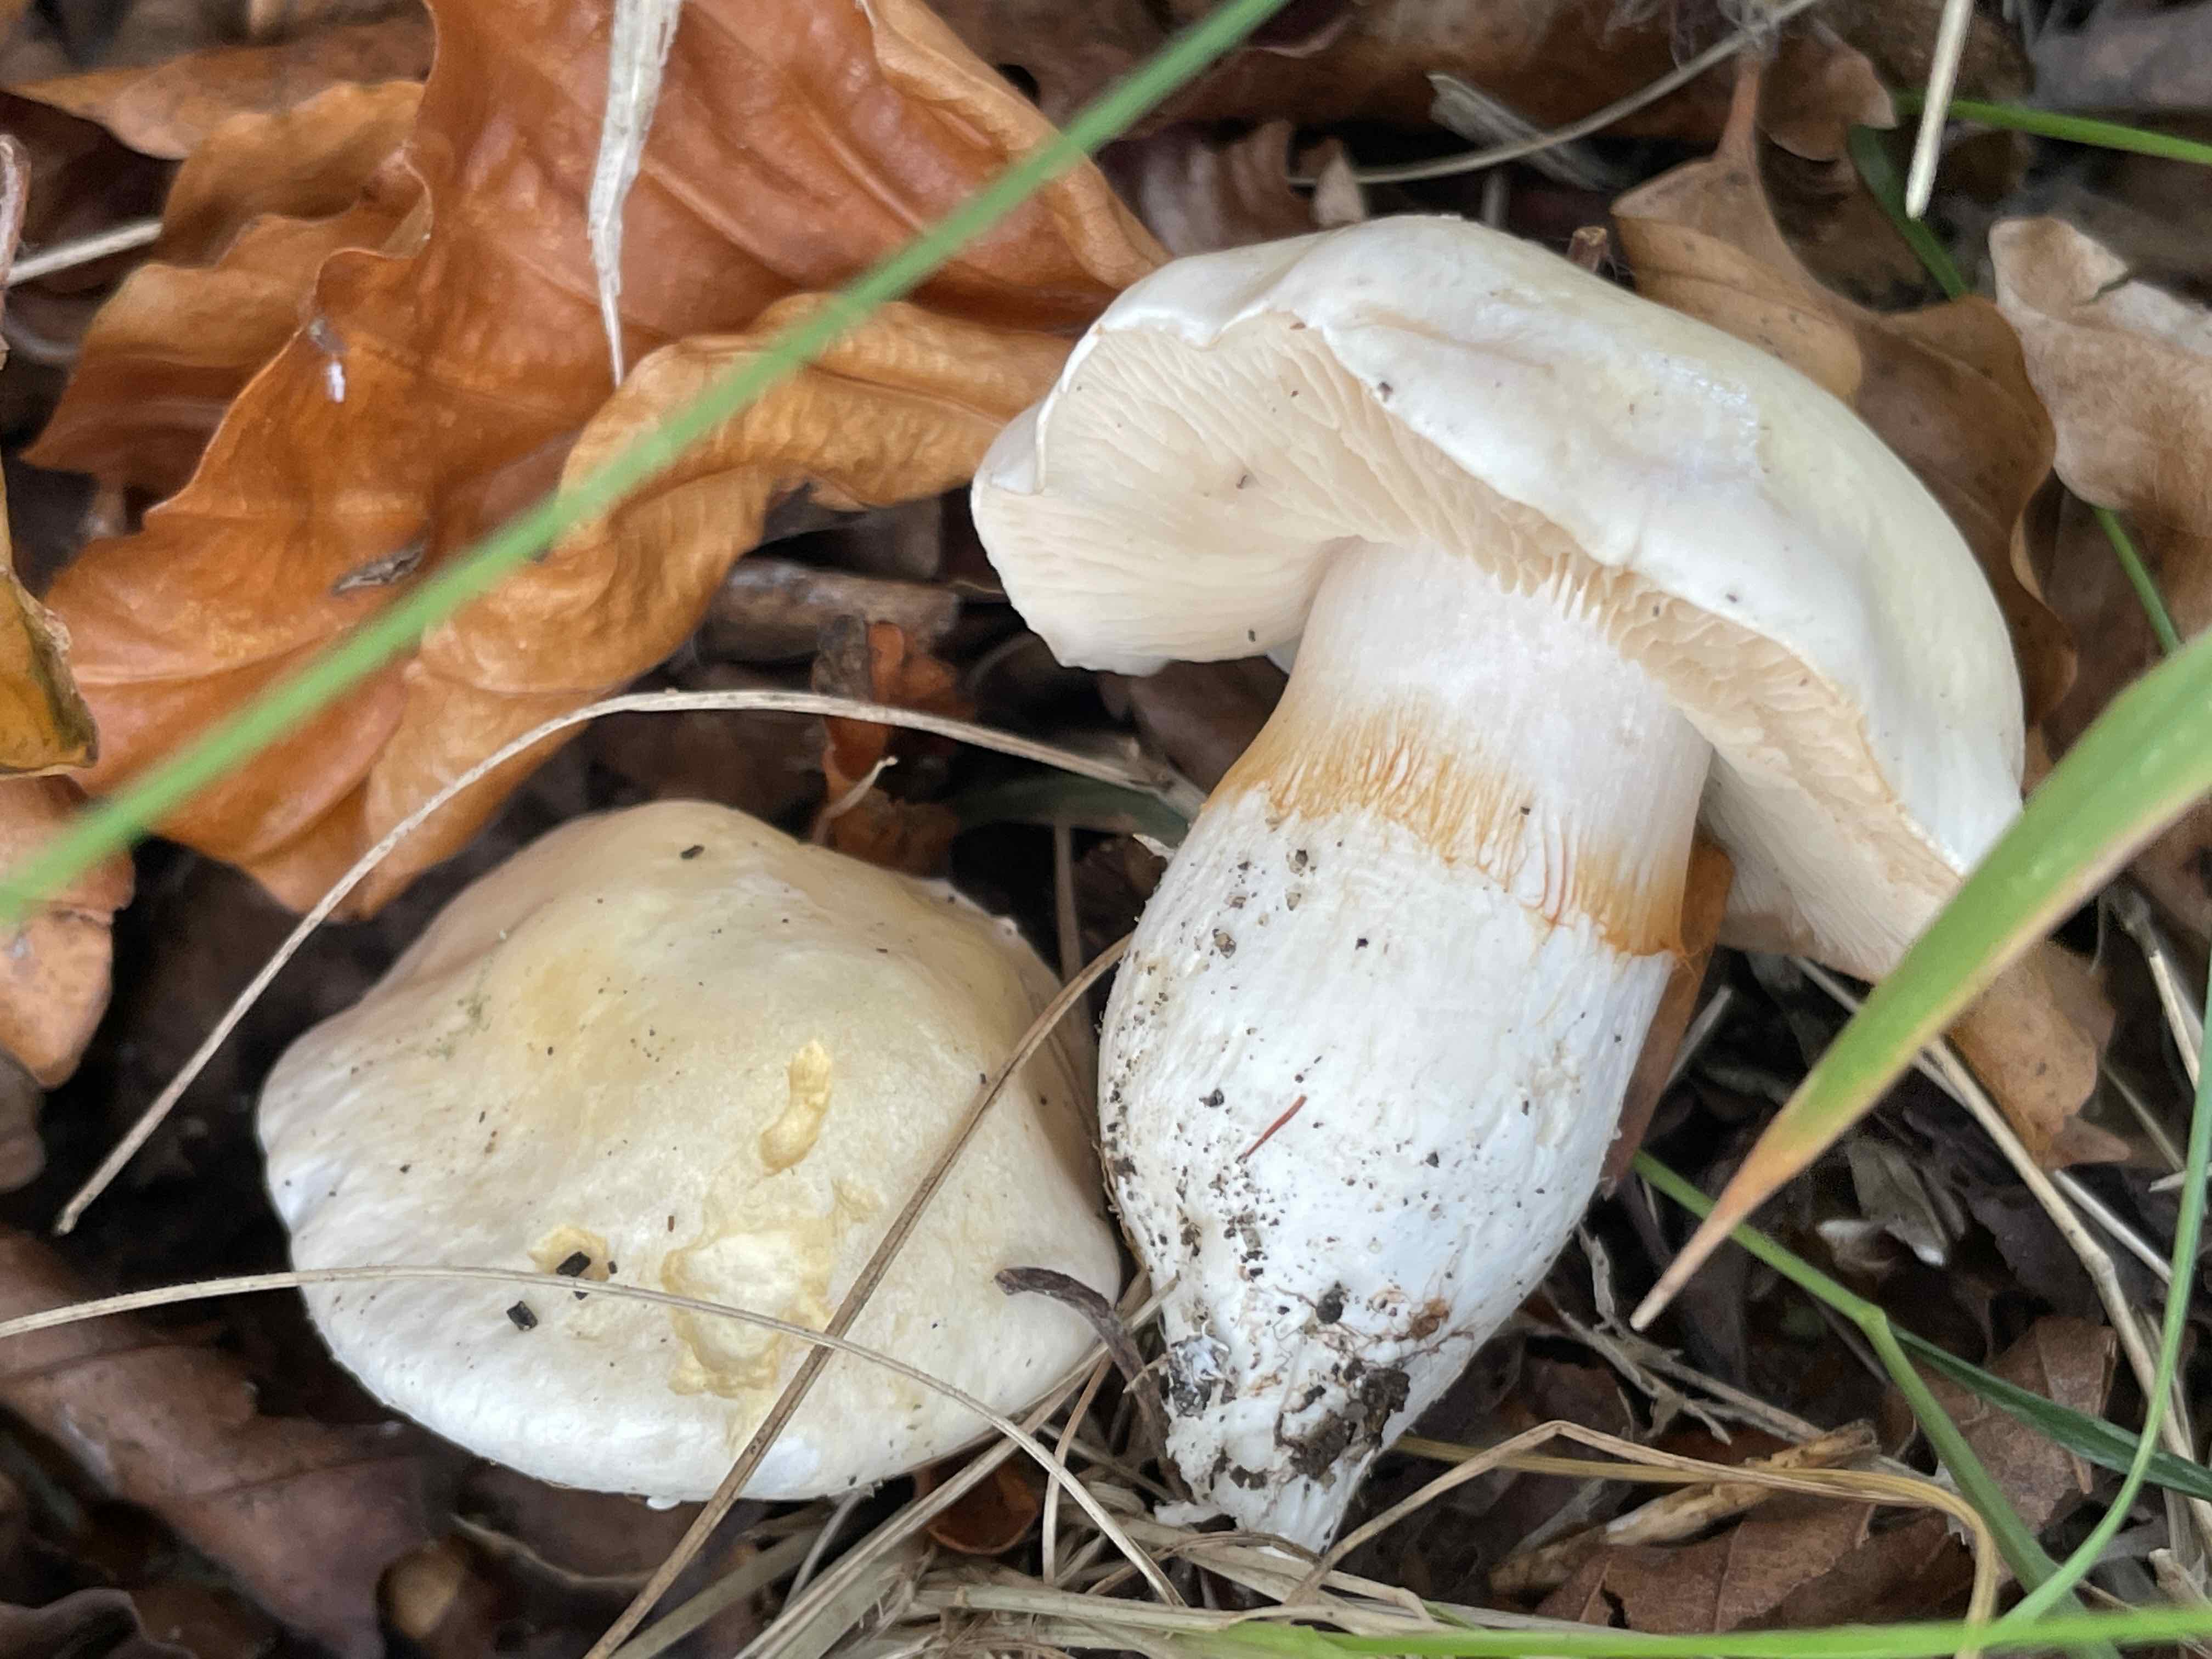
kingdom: Fungi
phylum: Basidiomycota
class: Agaricomycetes
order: Agaricales
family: Cortinariaceae
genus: Thaxterogaster
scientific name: Thaxterogaster barbatus
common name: elfenbens-slørhat
